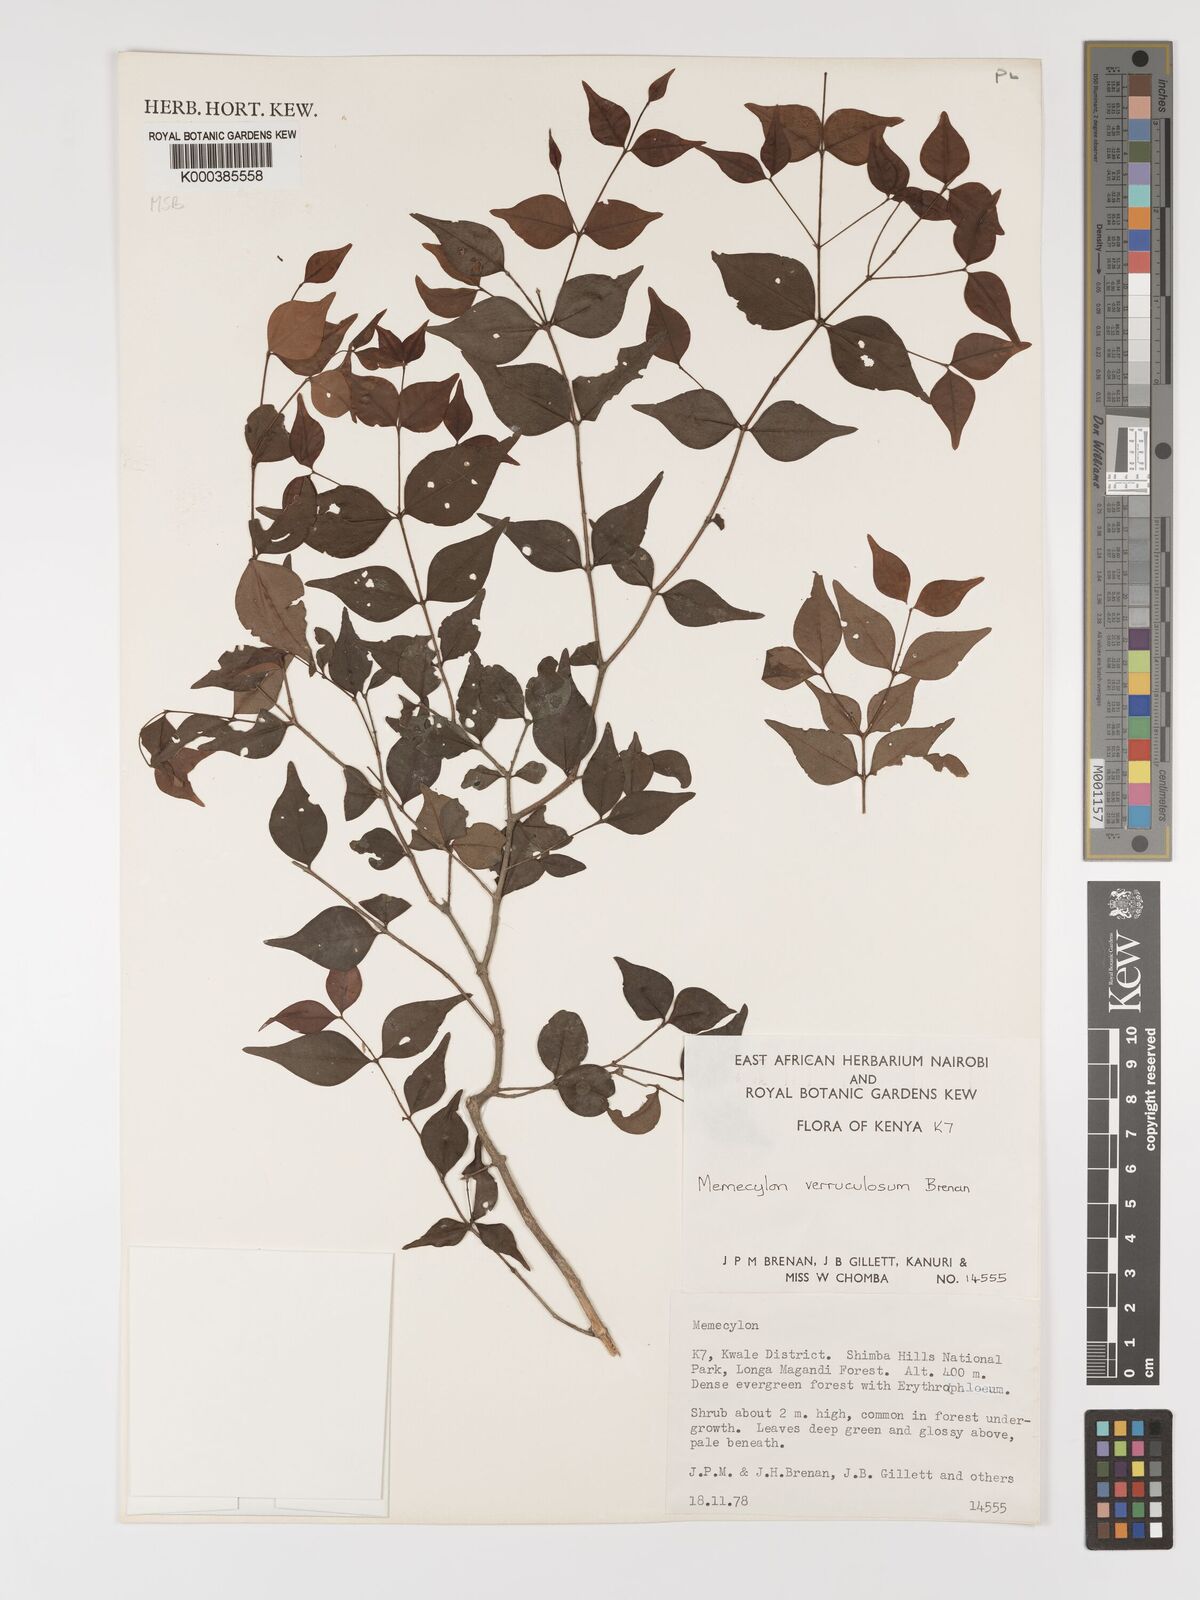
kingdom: Plantae
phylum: Tracheophyta
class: Magnoliopsida
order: Myrtales
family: Melastomataceae
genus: Memecylon
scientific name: Memecylon verruculosum
